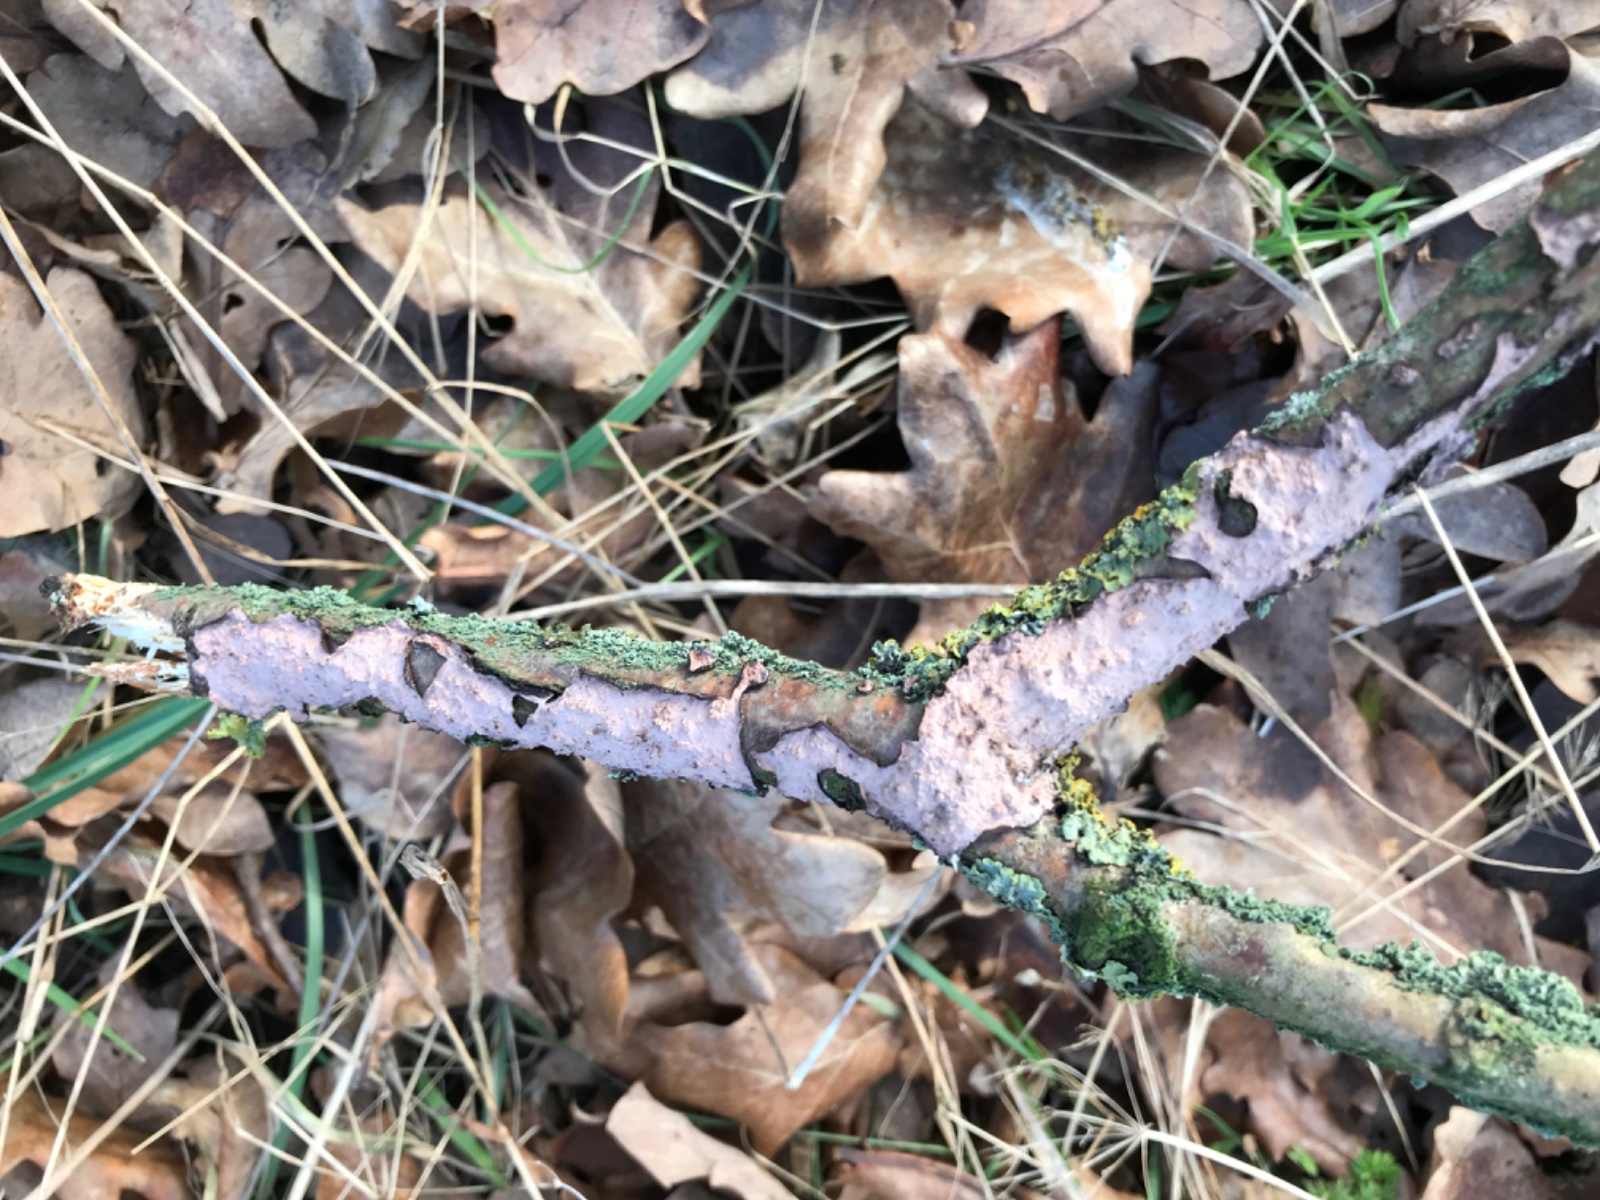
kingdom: Fungi
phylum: Basidiomycota
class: Agaricomycetes
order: Russulales
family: Peniophoraceae
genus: Peniophora
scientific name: Peniophora quercina
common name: ege-voksskind
